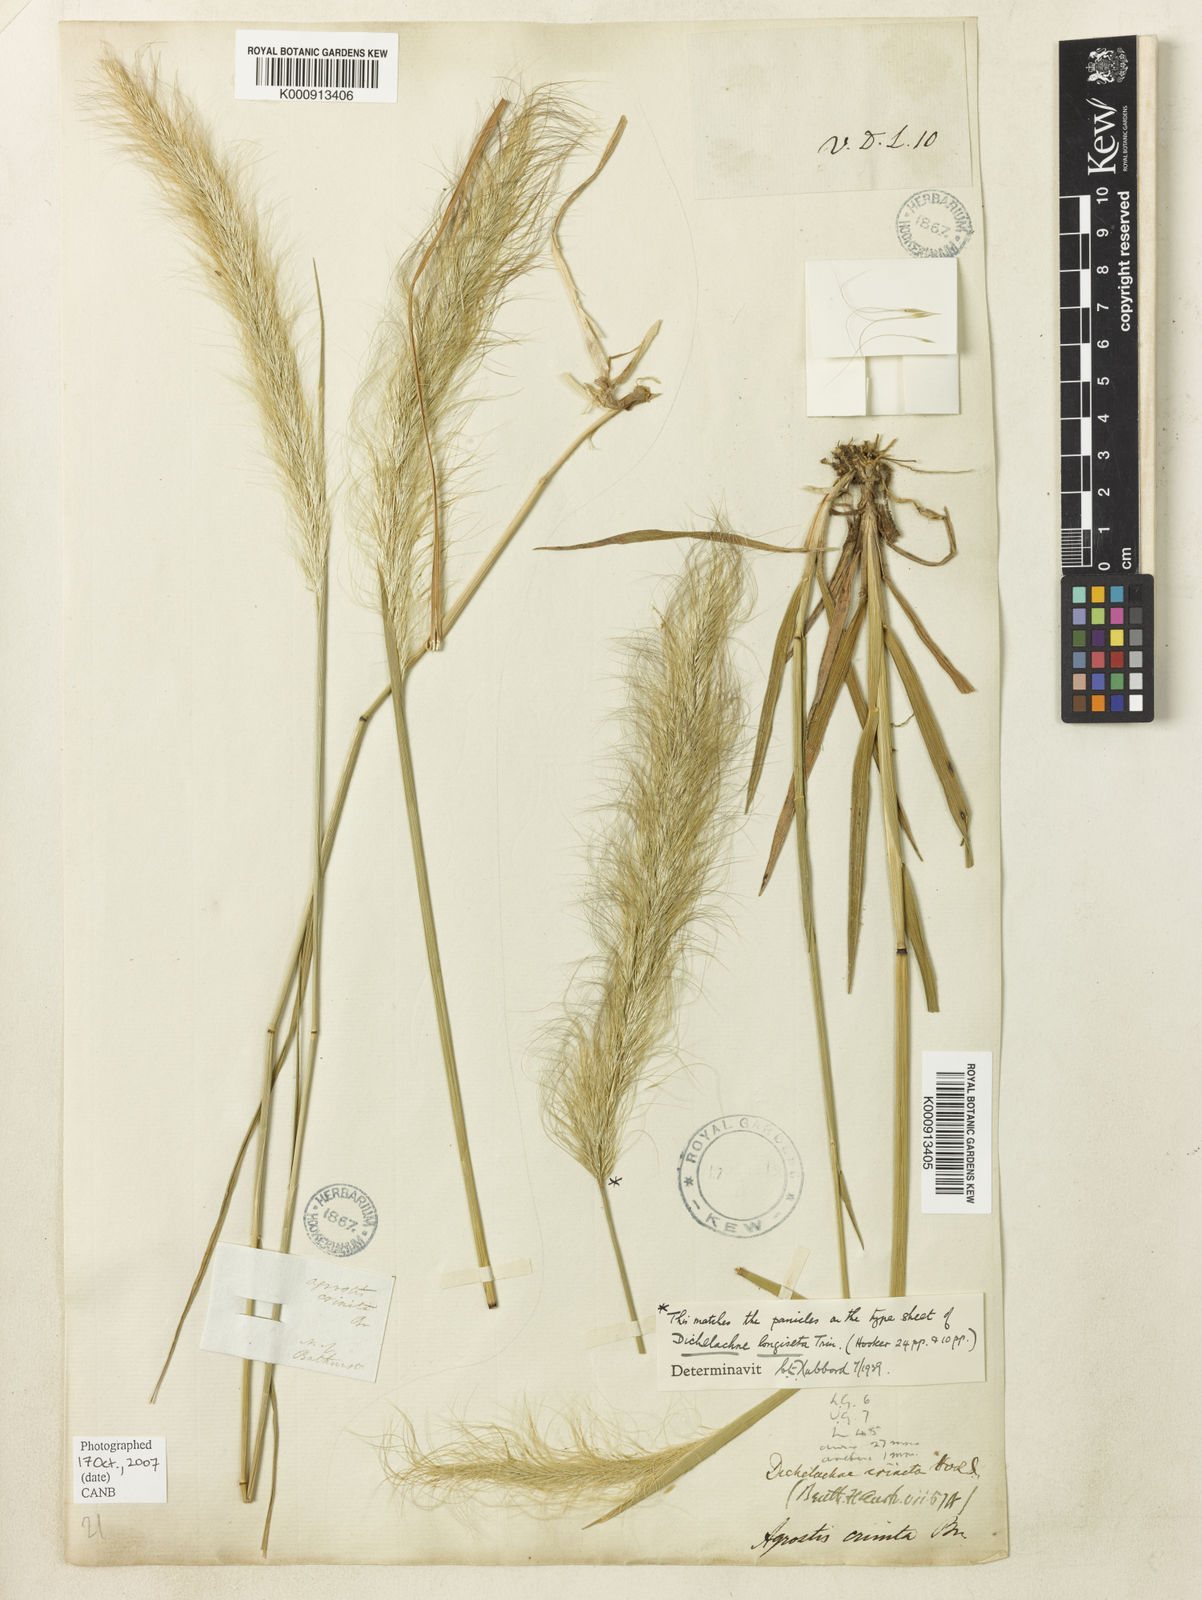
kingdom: Plantae
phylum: Tracheophyta
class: Liliopsida
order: Poales
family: Poaceae
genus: Dichelachne
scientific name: Dichelachne crinita
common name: Clovenfoot plumegrass
